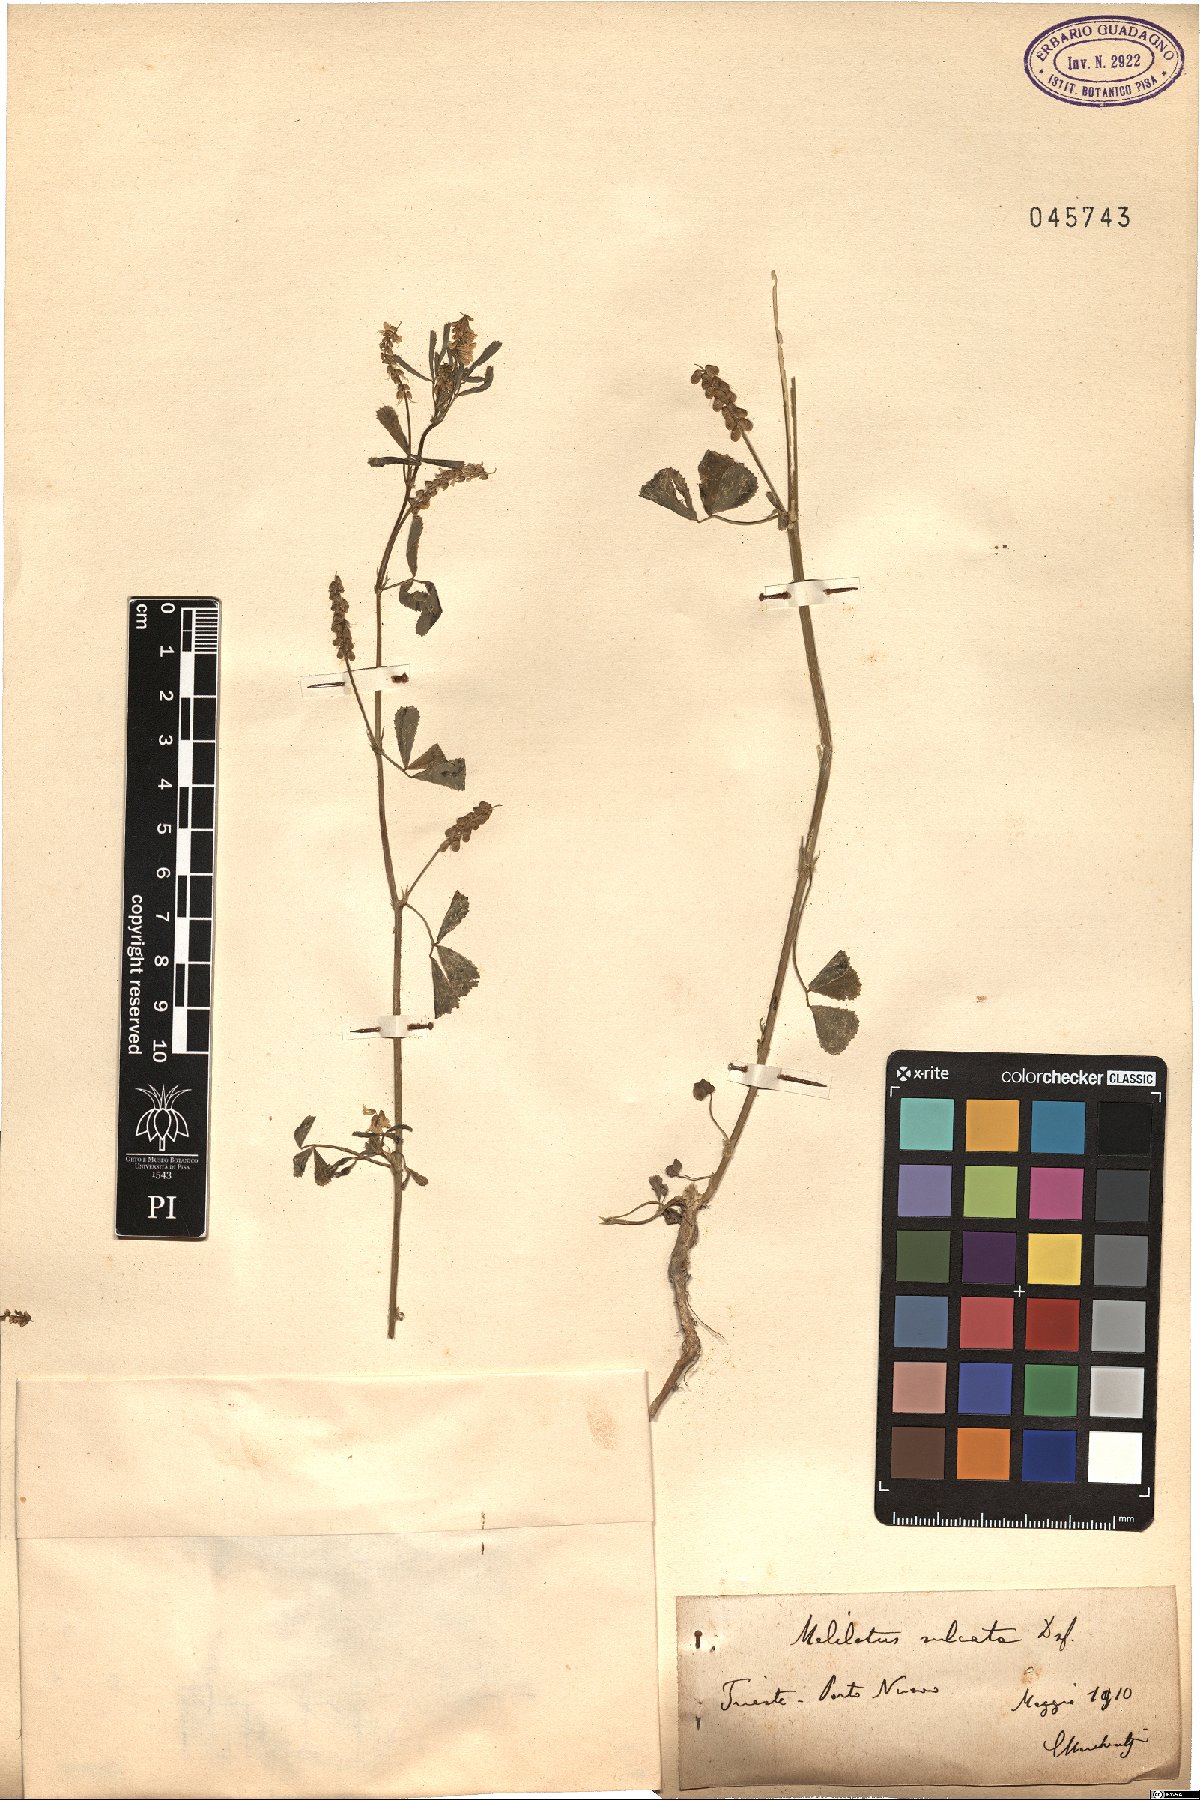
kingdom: Plantae
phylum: Tracheophyta
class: Magnoliopsida
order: Fabales
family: Fabaceae
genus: Melilotus
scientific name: Melilotus sulcatus
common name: Furrowed melilot
